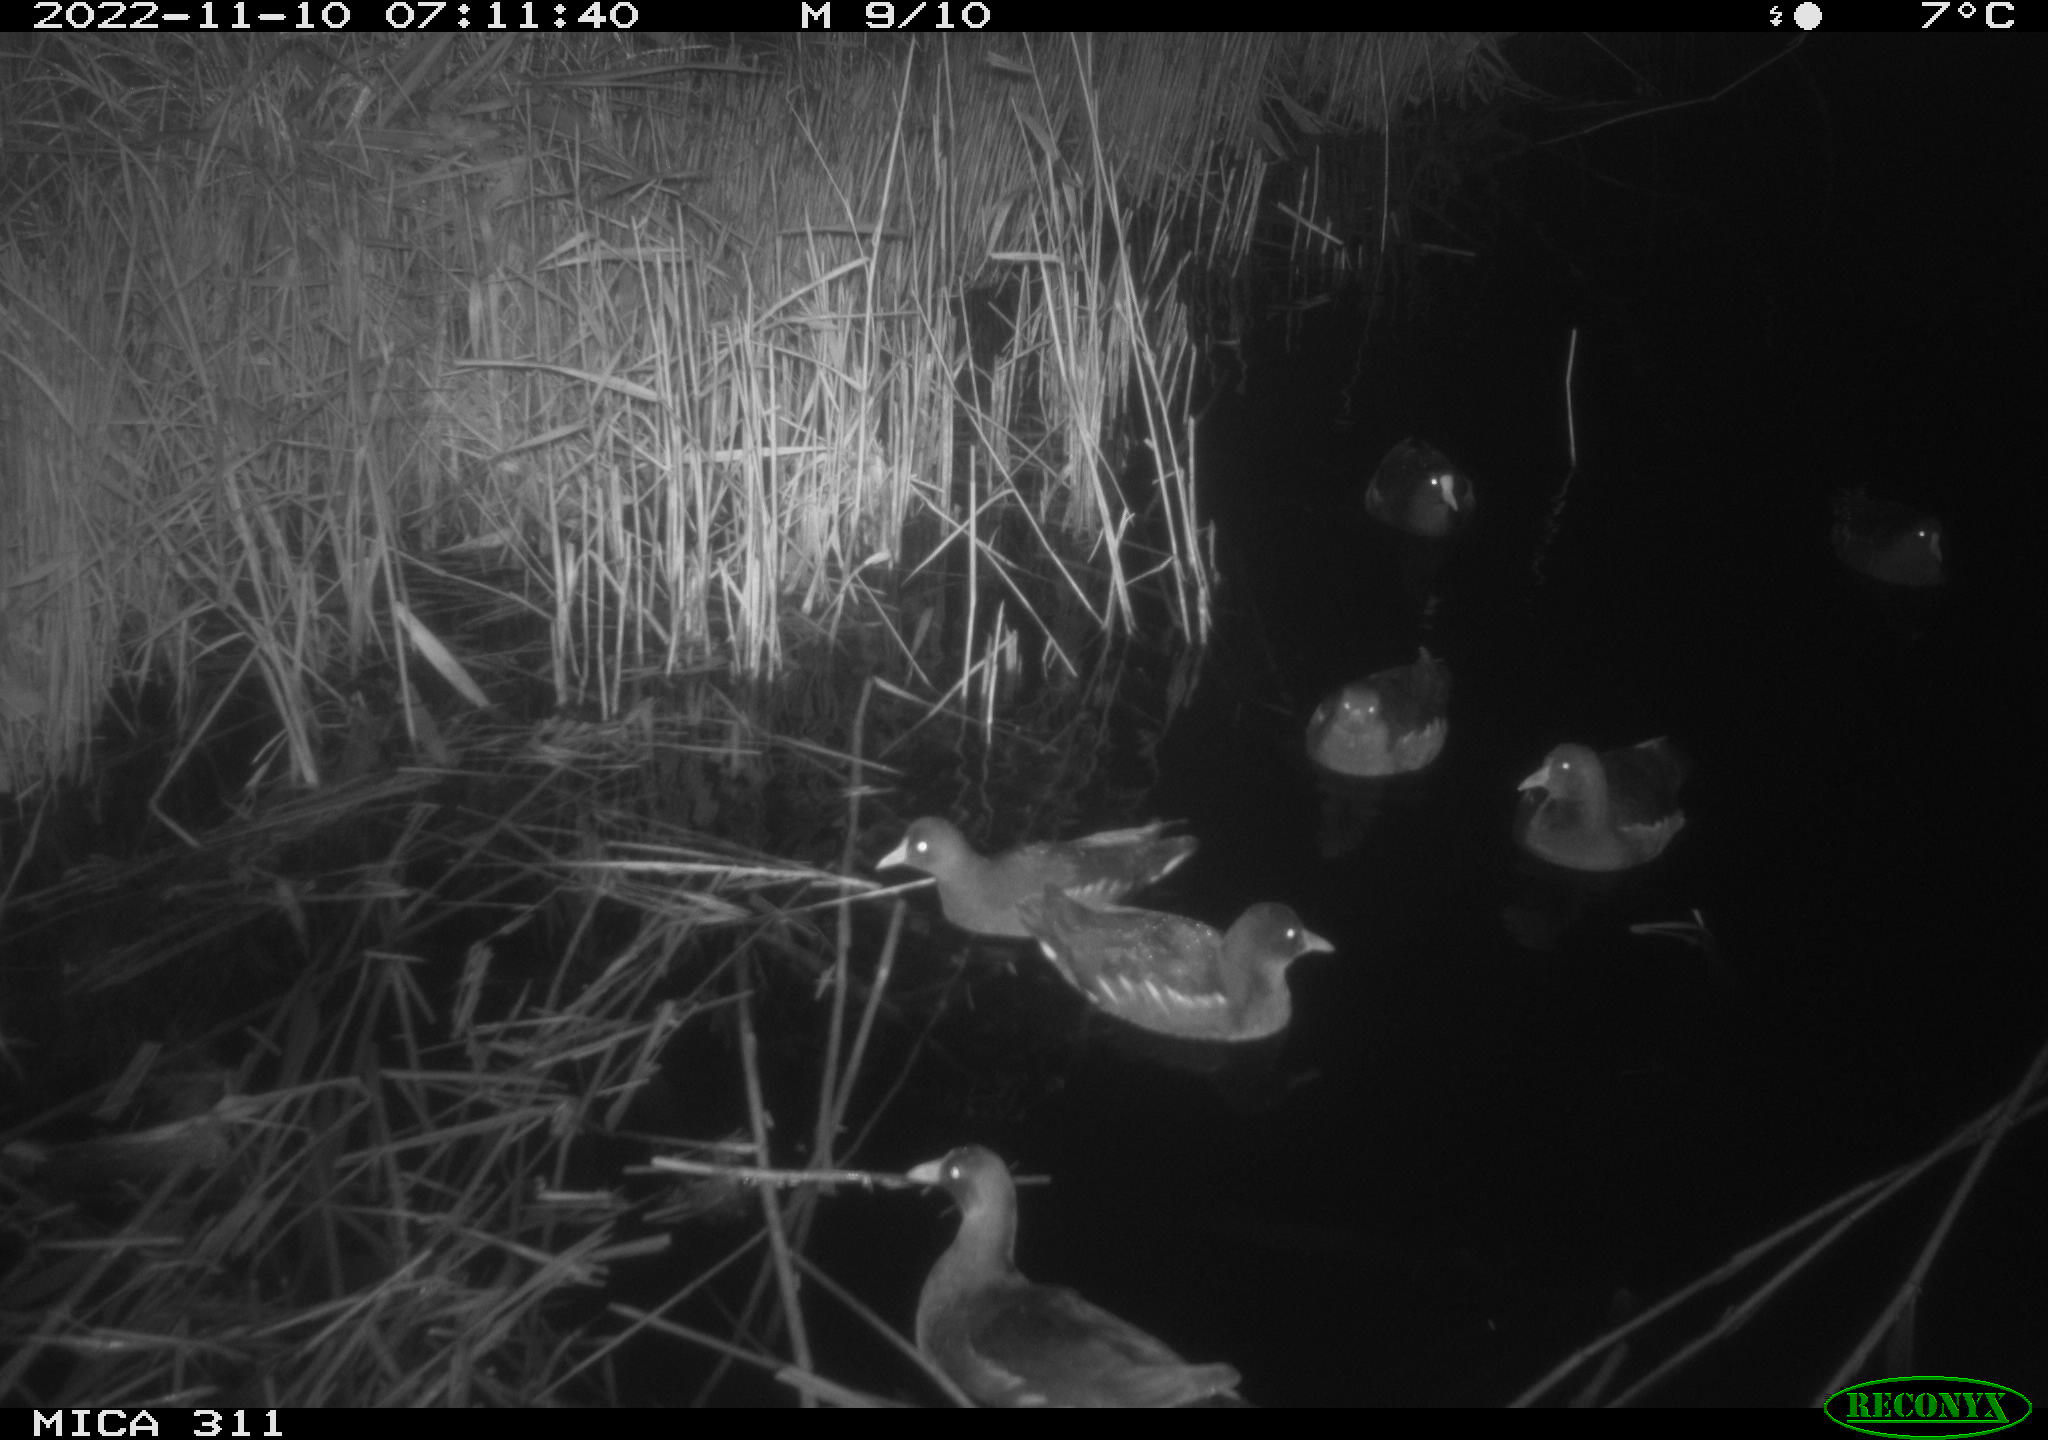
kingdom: Animalia
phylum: Chordata
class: Aves
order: Anseriformes
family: Anatidae
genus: Anas
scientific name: Anas
